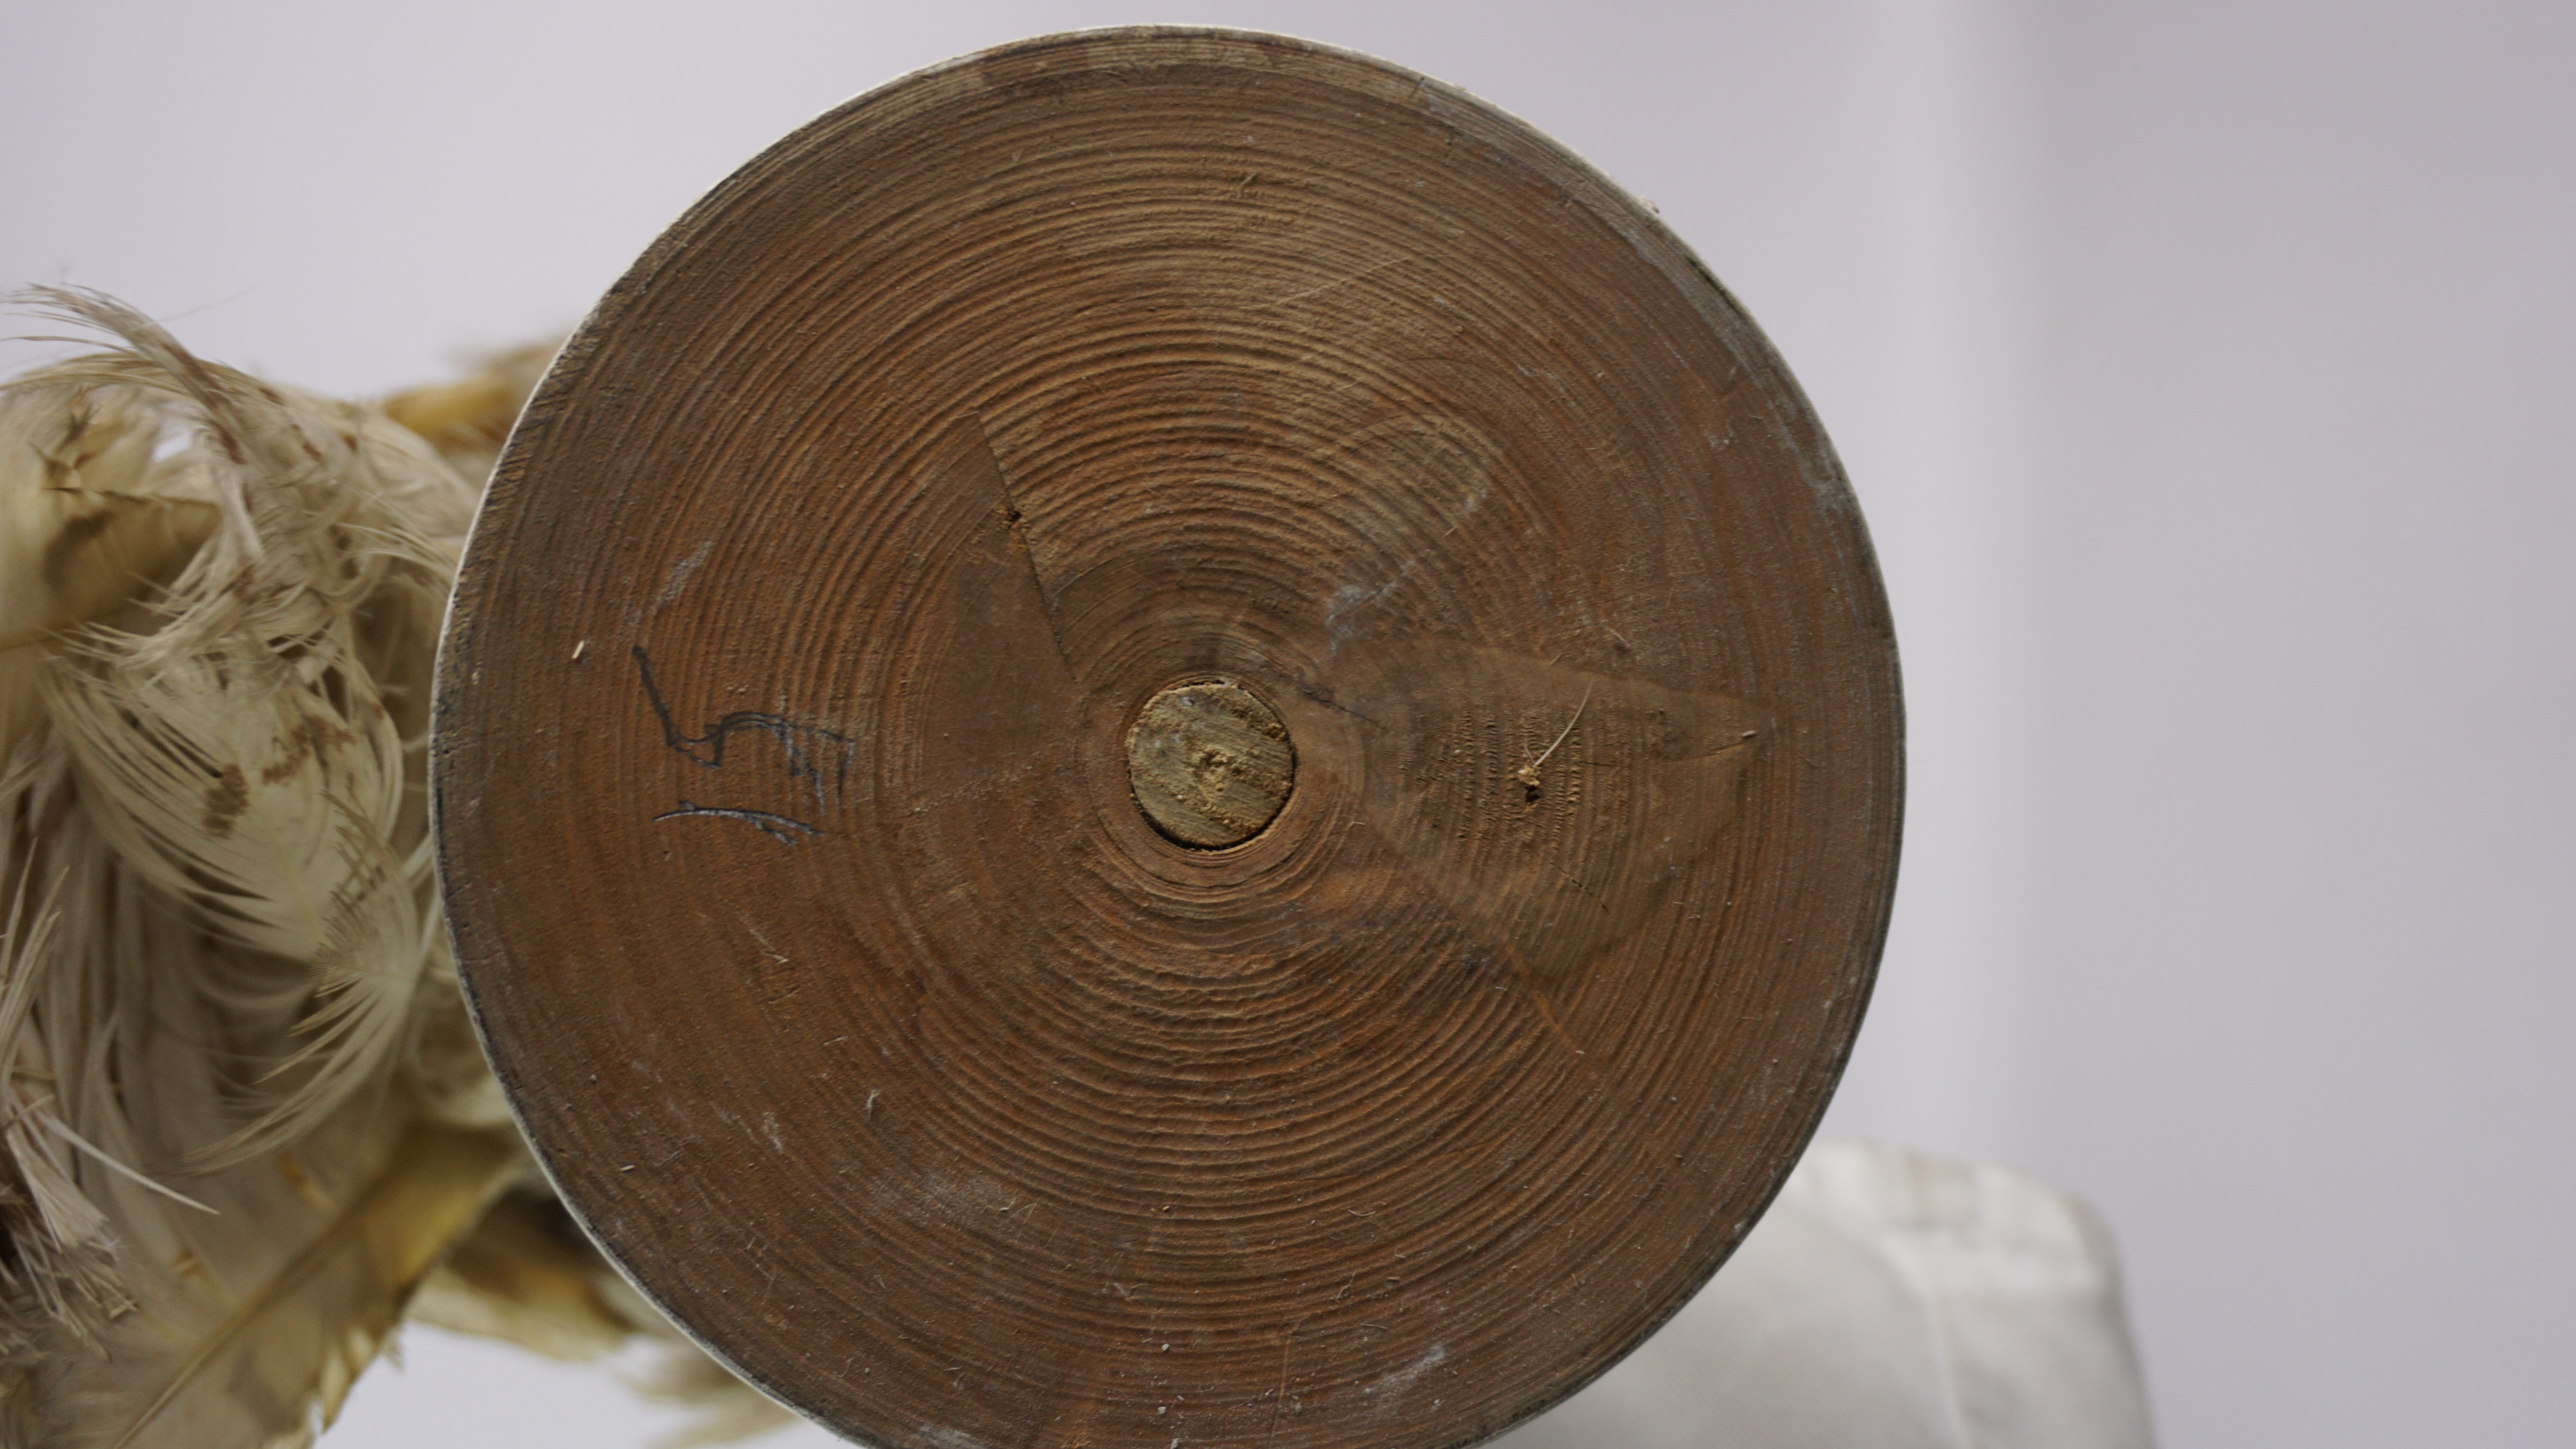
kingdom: Animalia
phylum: Chordata
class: Aves
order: Strigiformes
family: Strigidae
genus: Bubo
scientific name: Bubo scandiacus
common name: Snowy owl
